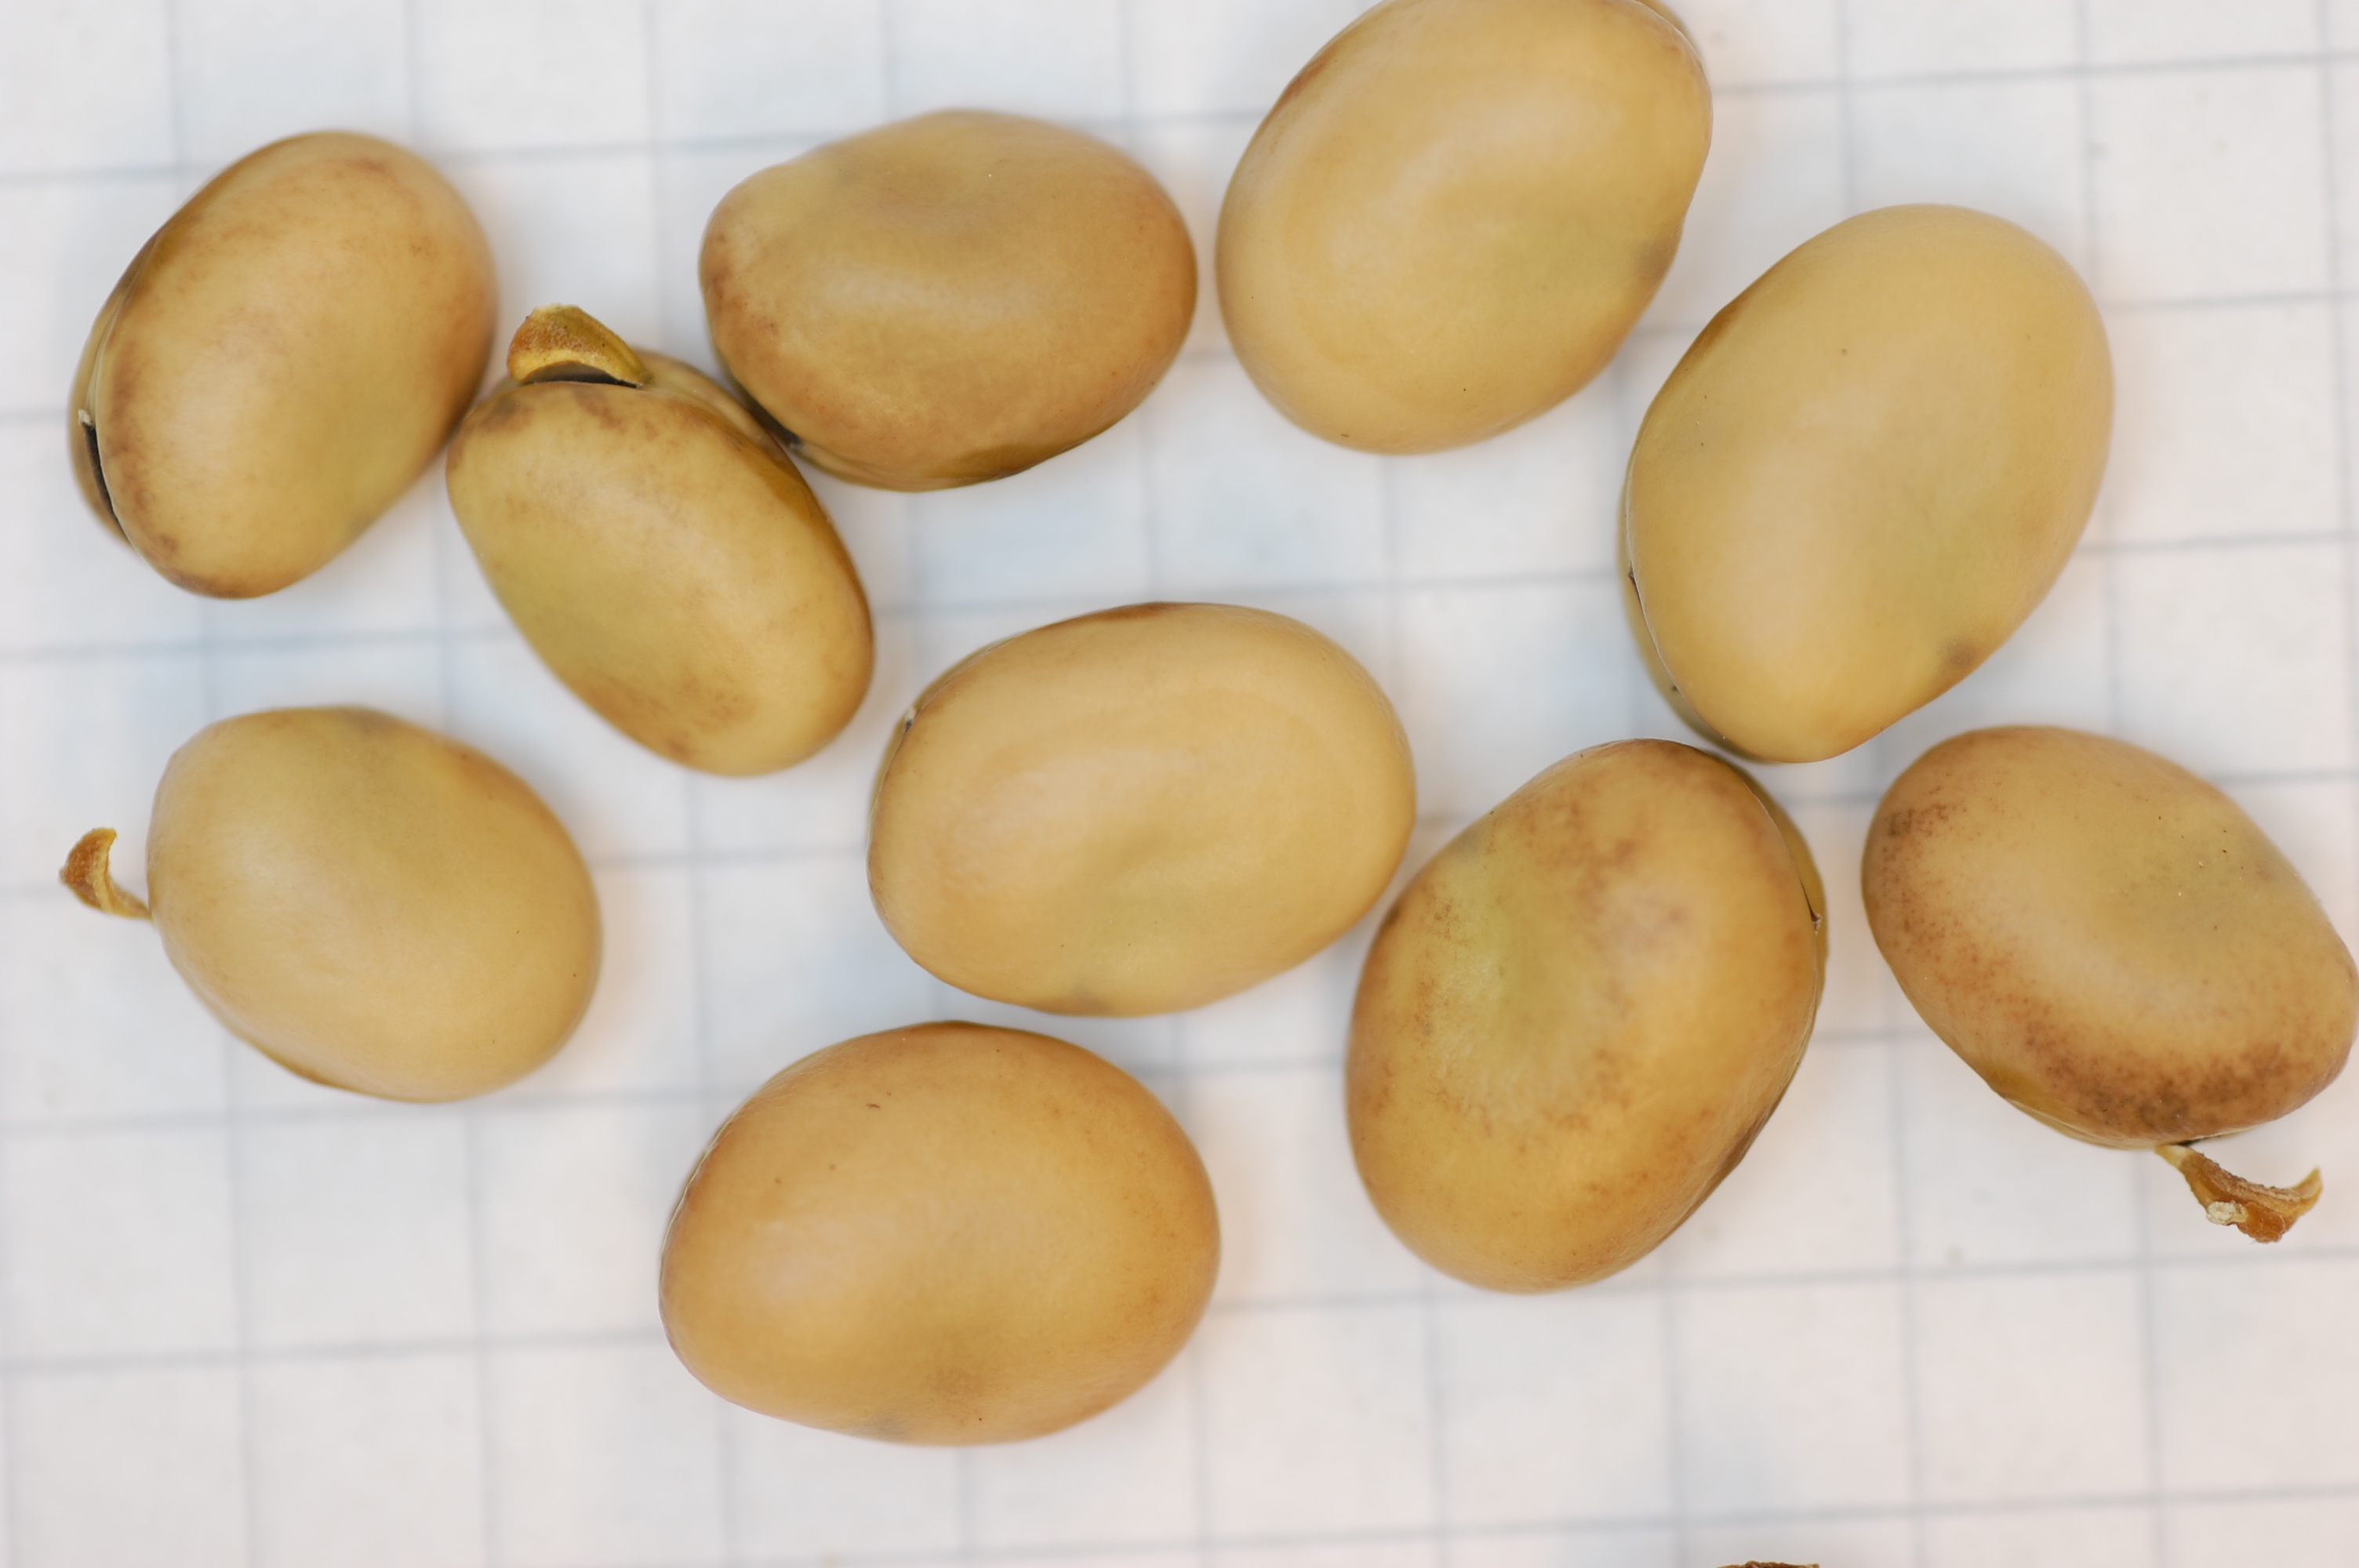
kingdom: Plantae
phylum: Tracheophyta
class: Magnoliopsida
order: Fabales
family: Fabaceae
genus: Vicia
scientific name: Vicia faba
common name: Broad bean
